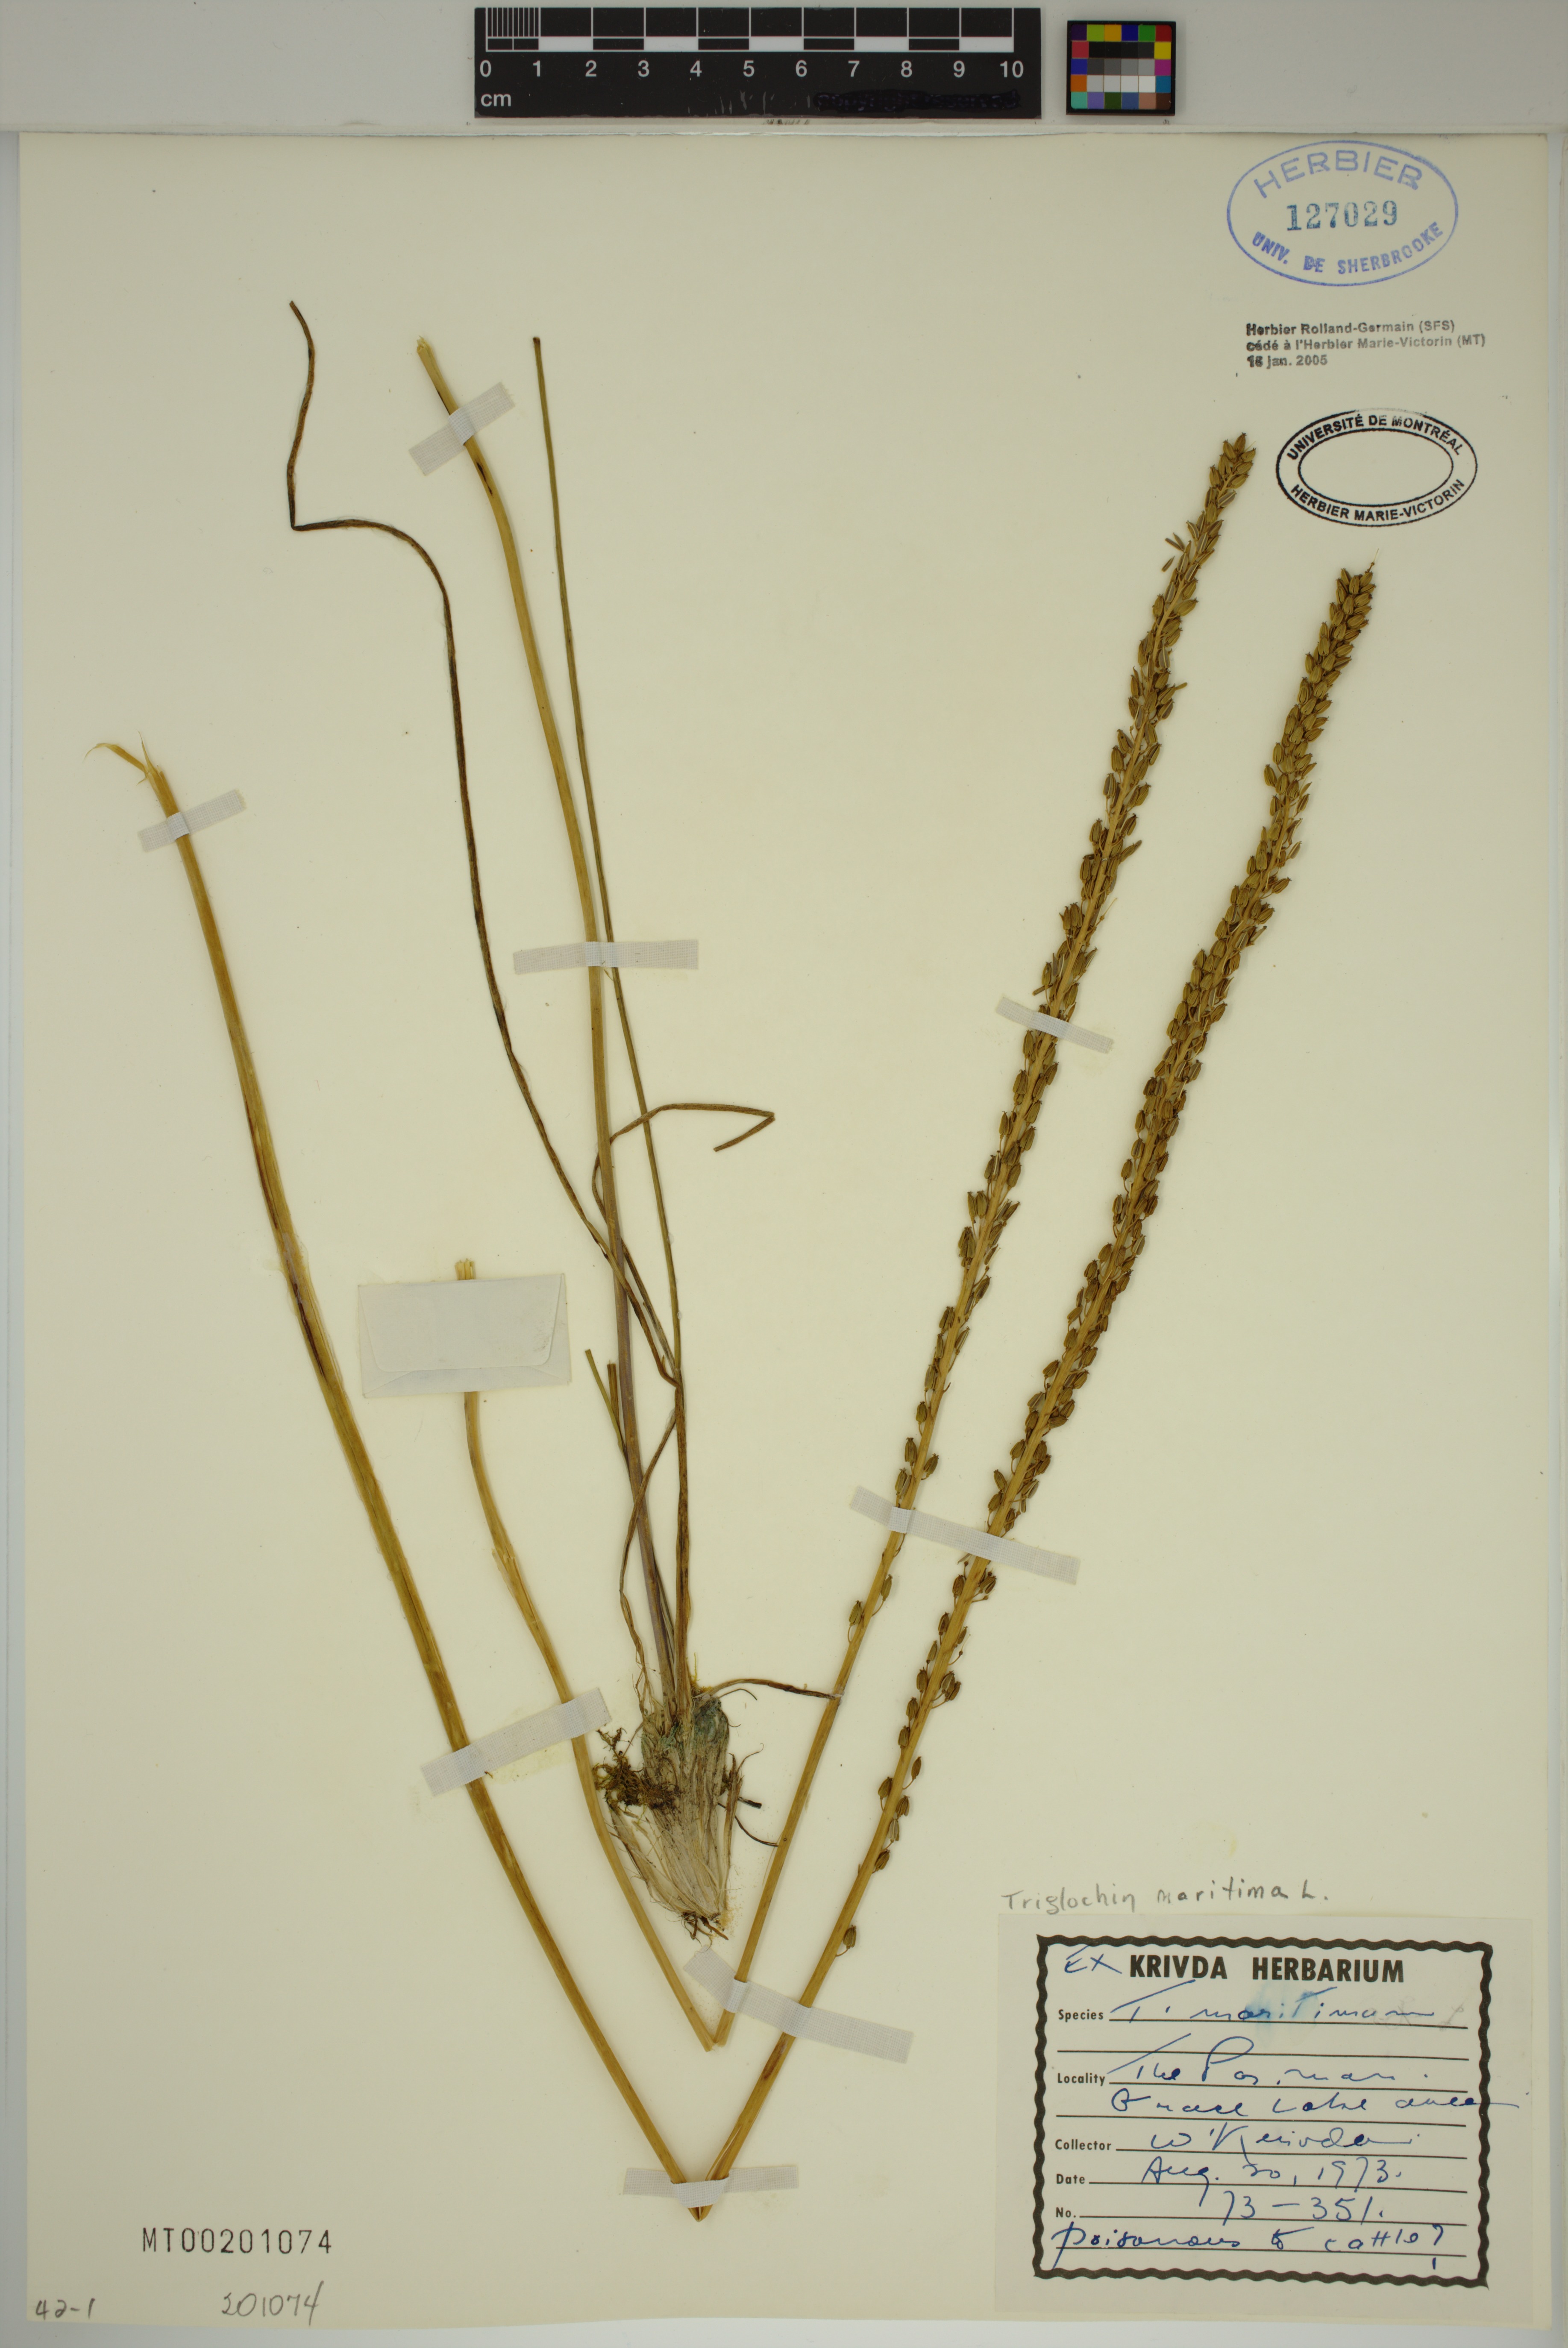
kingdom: Plantae
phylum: Tracheophyta
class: Liliopsida
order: Alismatales
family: Juncaginaceae
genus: Triglochin
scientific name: Triglochin maritima
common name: Sea arrowgrass
